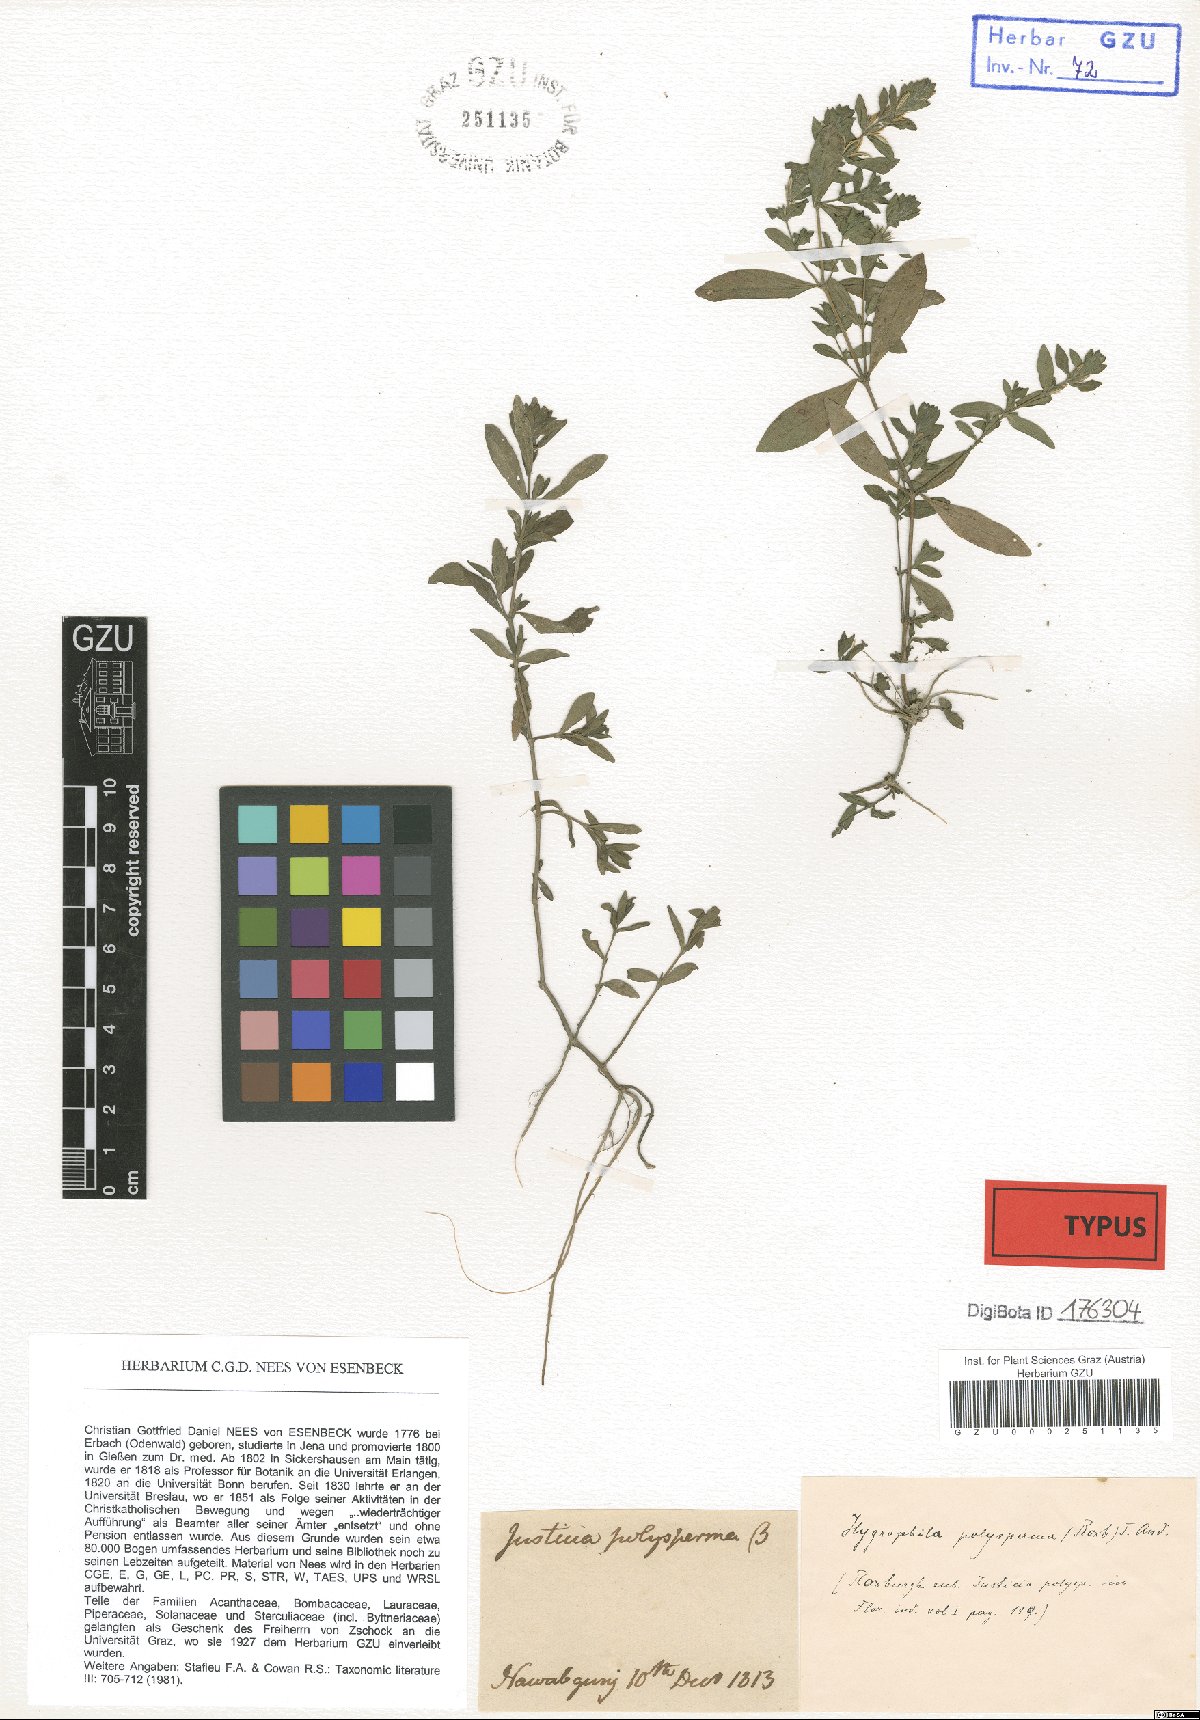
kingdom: Plantae
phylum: Tracheophyta
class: Magnoliopsida
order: Lamiales
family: Acanthaceae
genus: Hygrophila
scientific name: Hygrophila polysperma
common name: Indian swampweed
